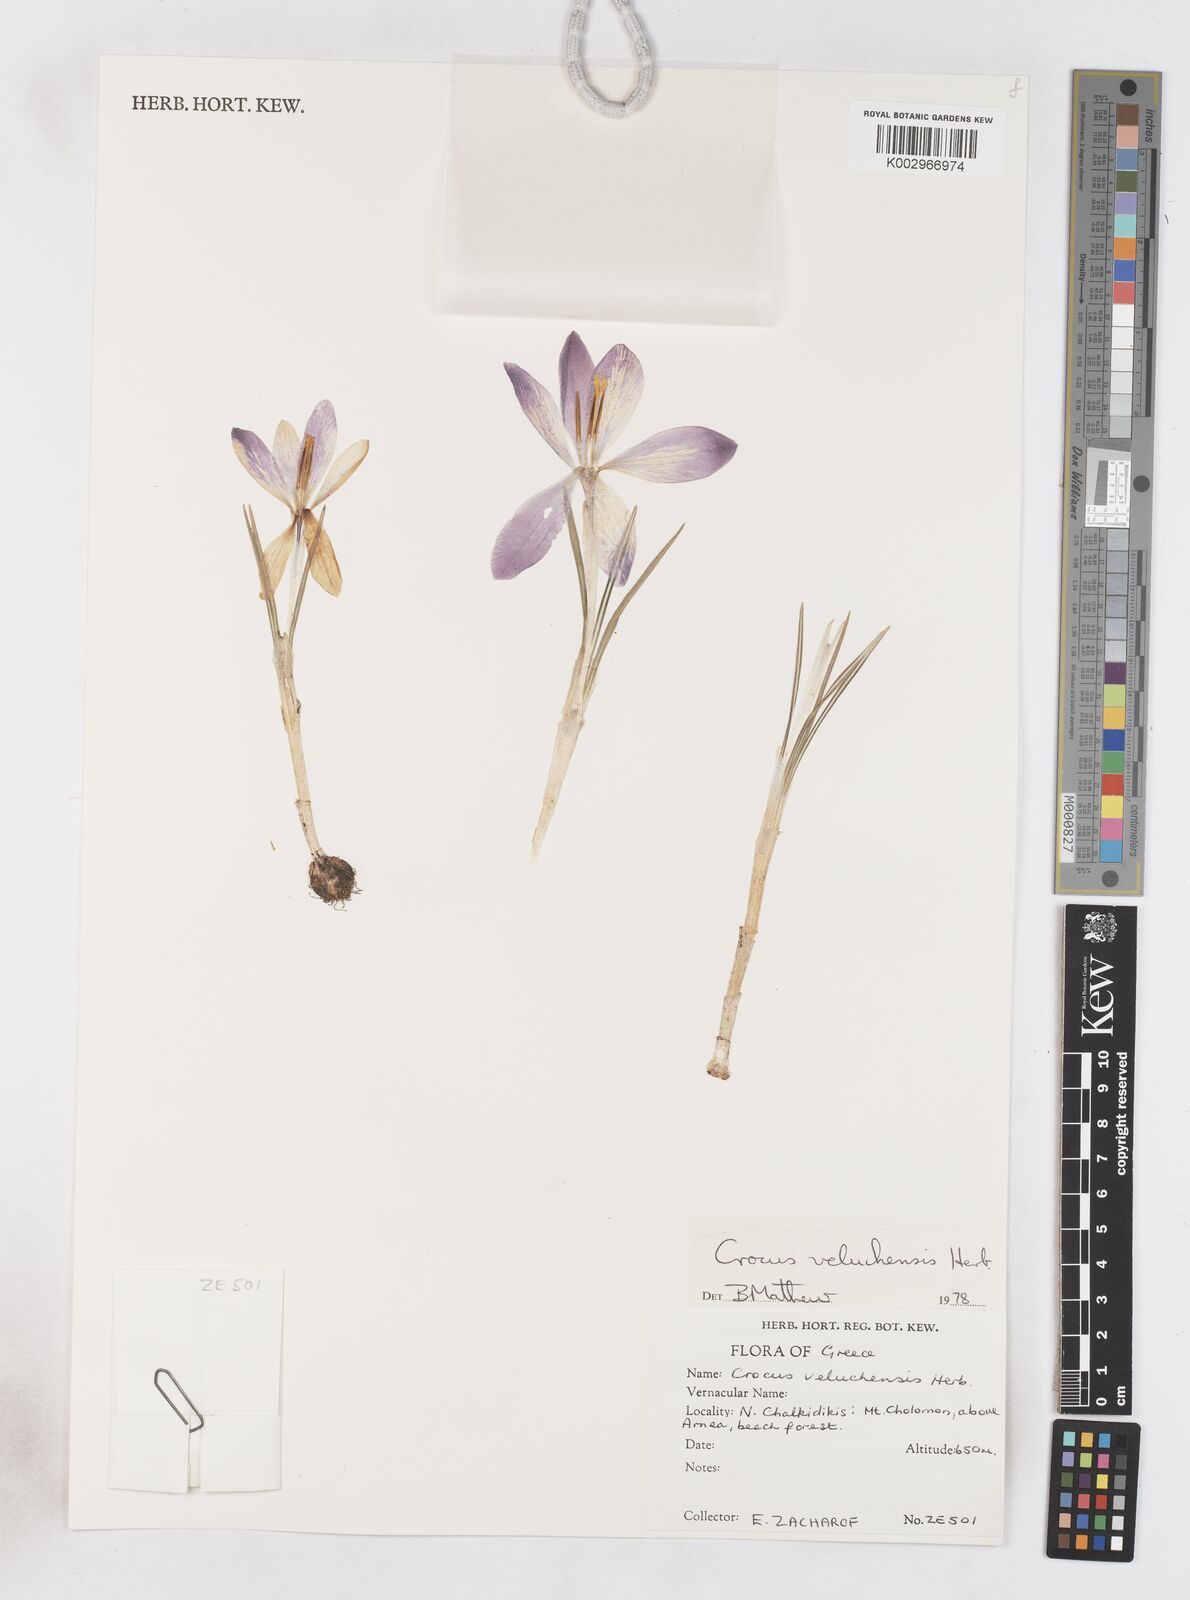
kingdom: Plantae
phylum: Tracheophyta
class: Liliopsida
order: Asparagales
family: Iridaceae
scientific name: Iridaceae
